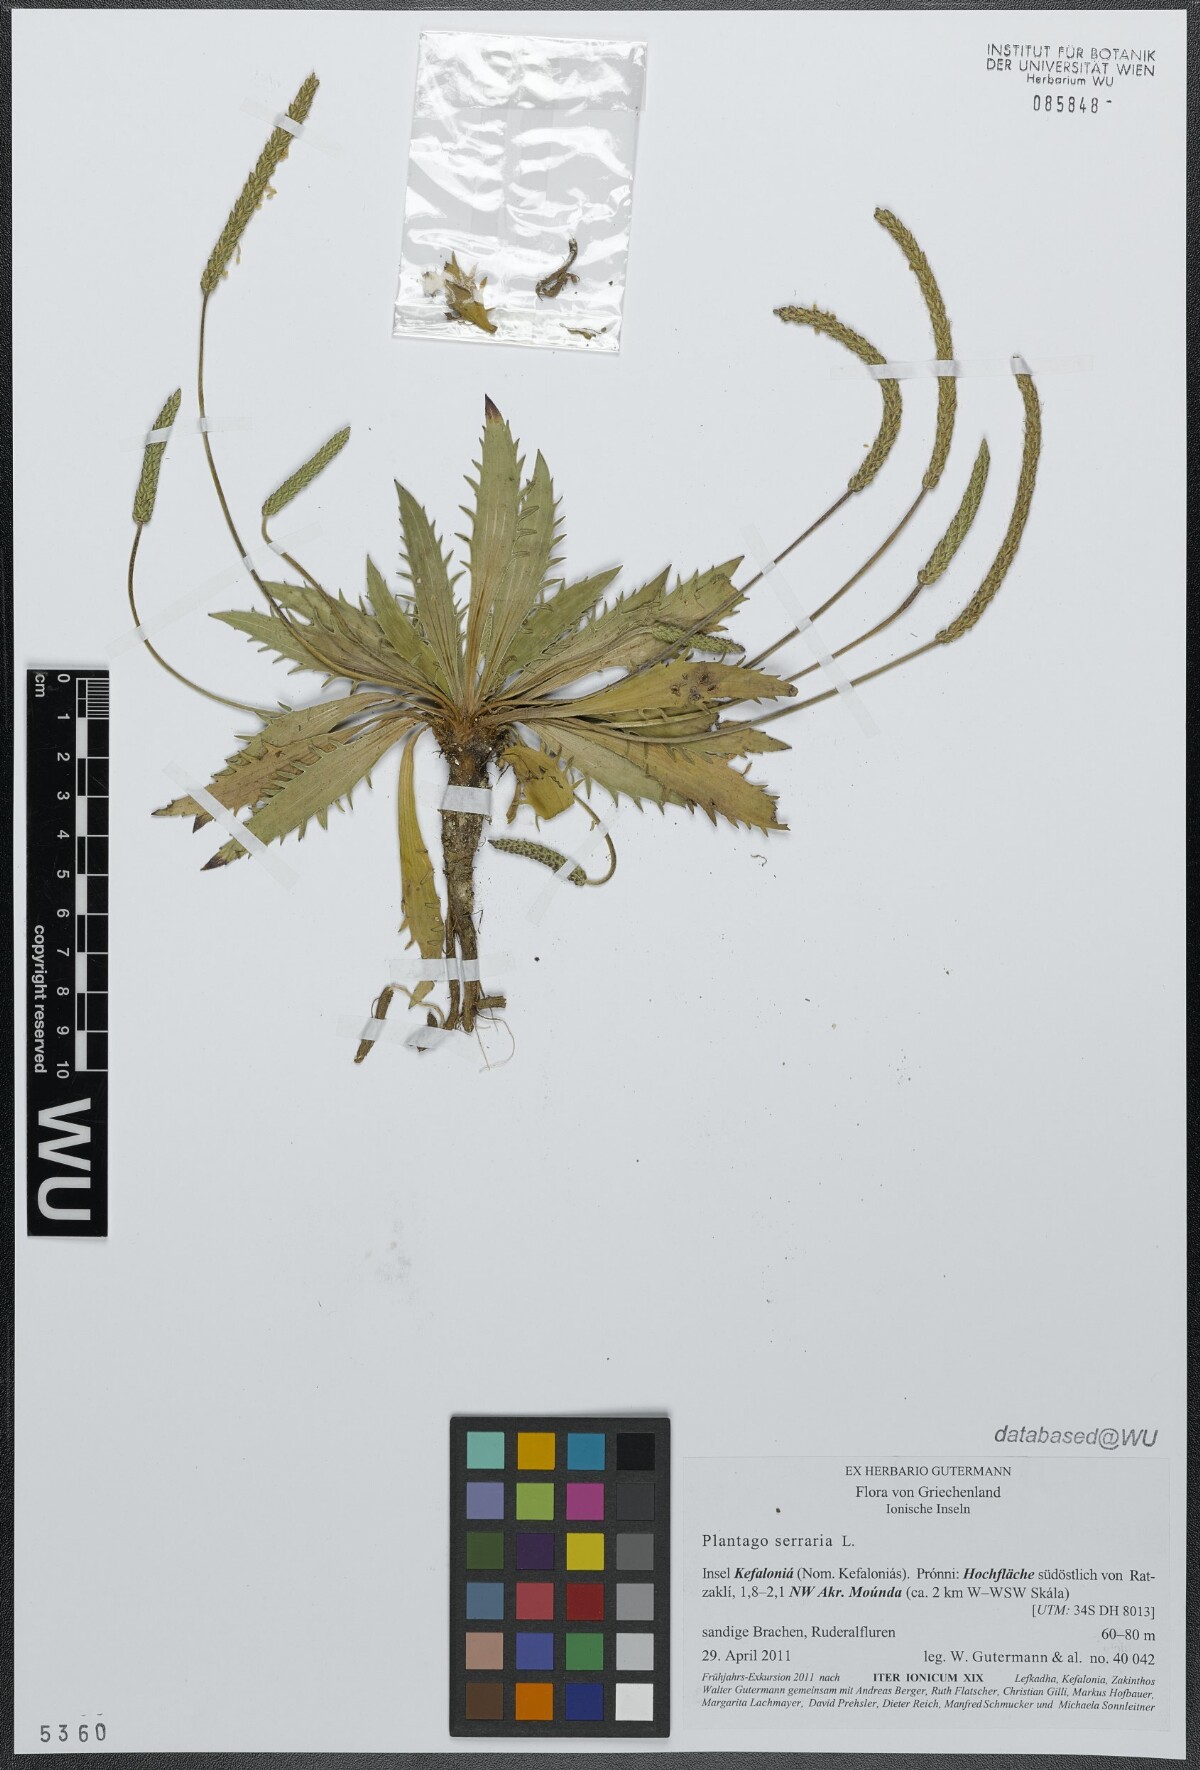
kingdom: Plantae
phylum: Tracheophyta
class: Magnoliopsida
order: Lamiales
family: Plantaginaceae
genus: Plantago
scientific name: Plantago serraria
